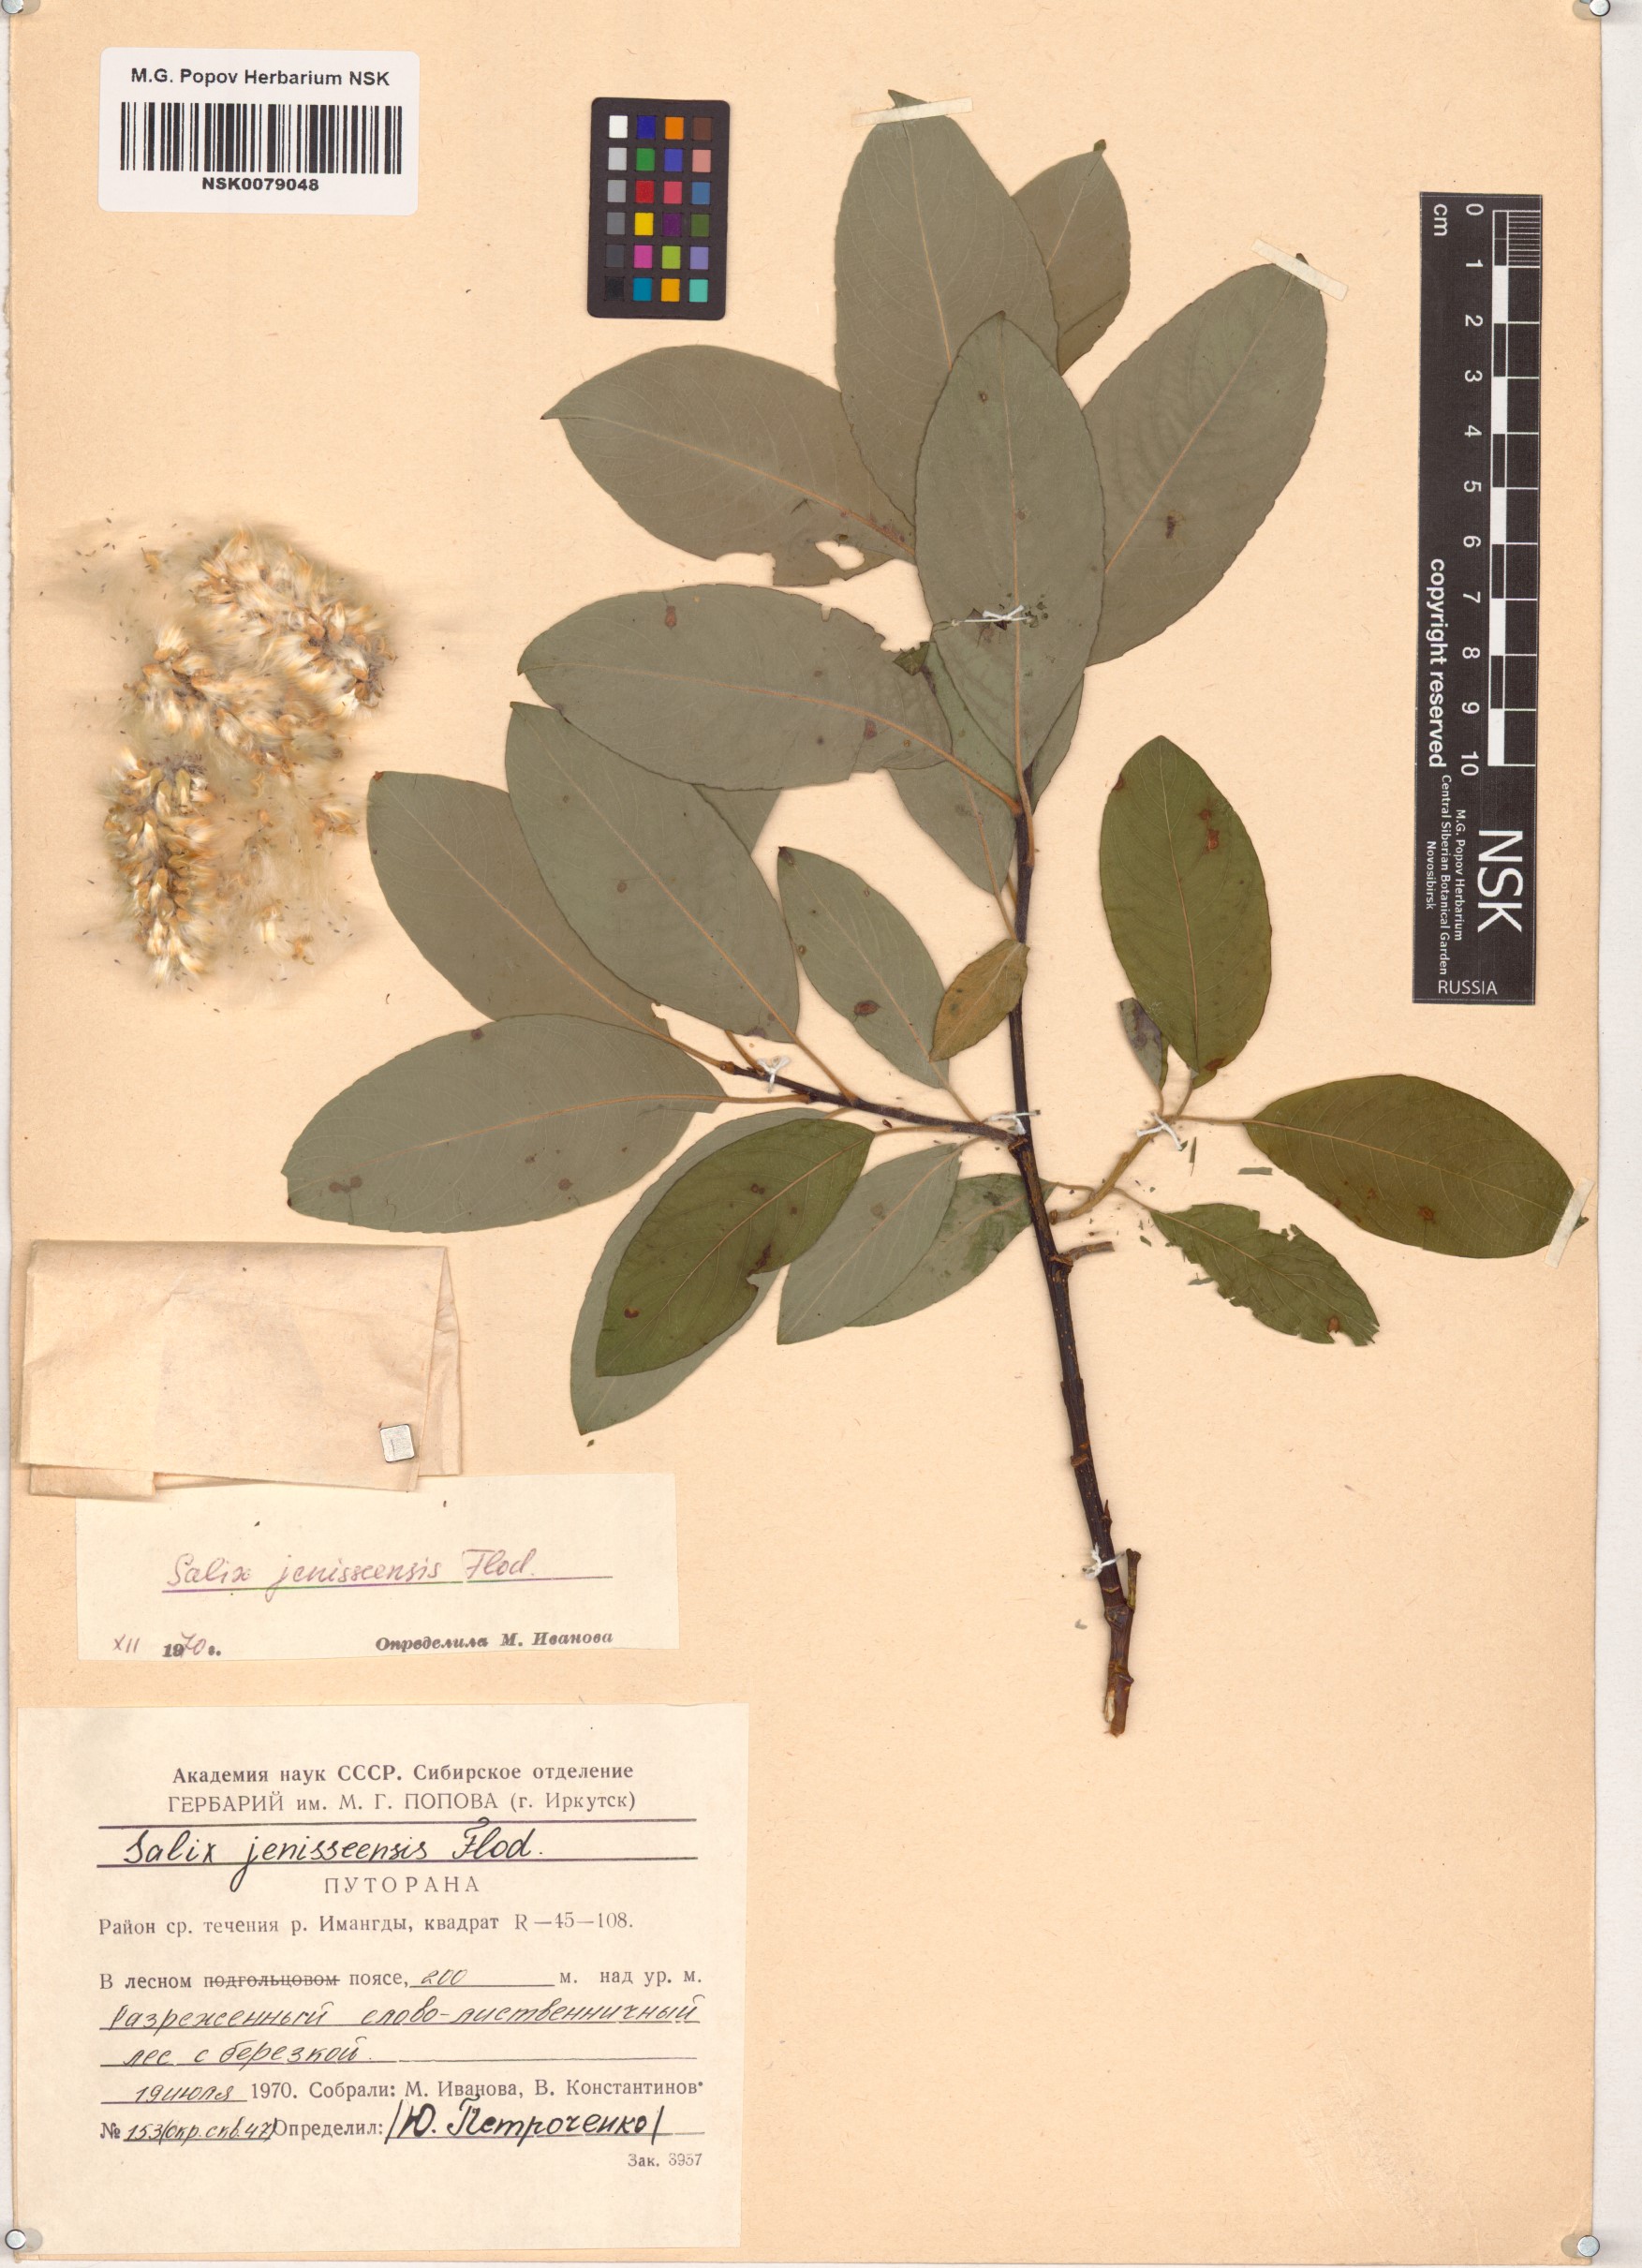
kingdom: Plantae
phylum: Tracheophyta
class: Magnoliopsida
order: Malpighiales
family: Salicaceae
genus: Salix
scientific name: Salix jenisseensis
